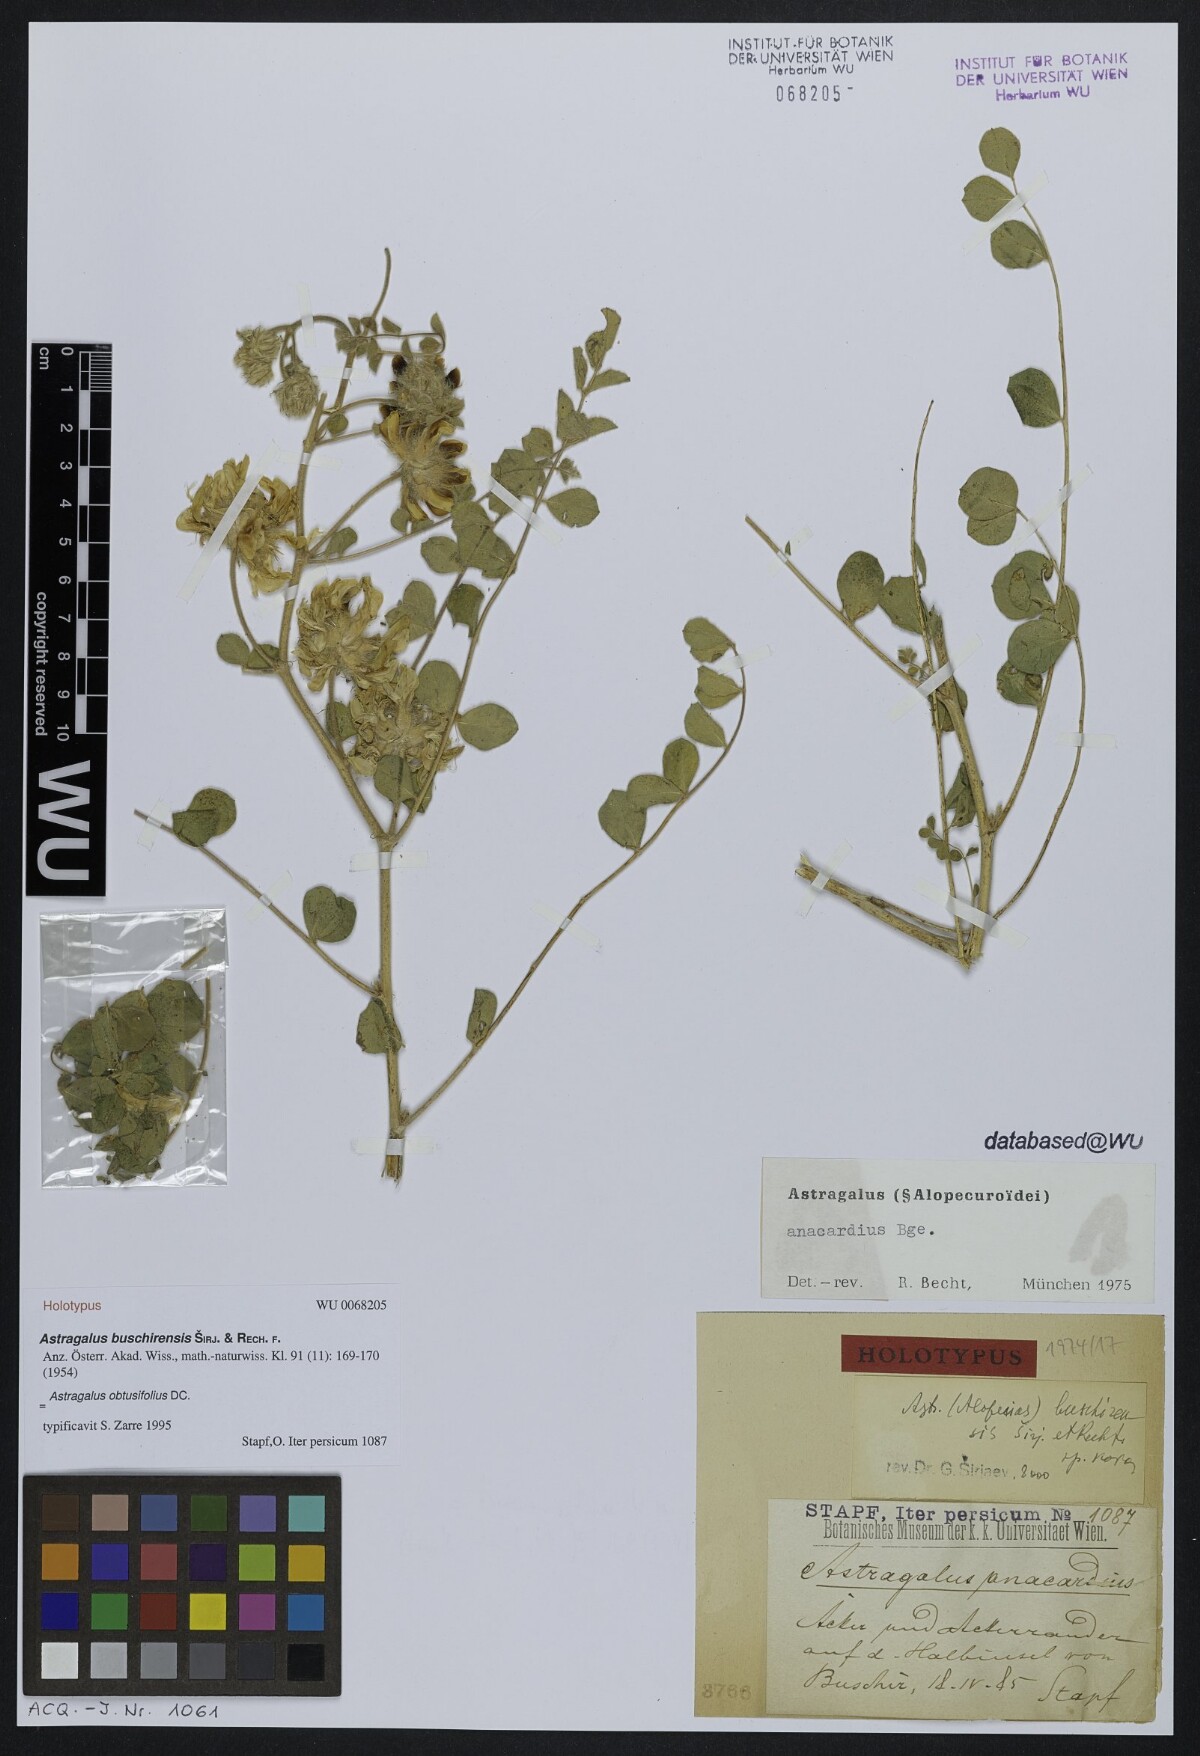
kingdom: Plantae
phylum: Tracheophyta
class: Magnoliopsida
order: Fabales
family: Fabaceae
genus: Astragalus
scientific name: Astragalus obtusifolius
